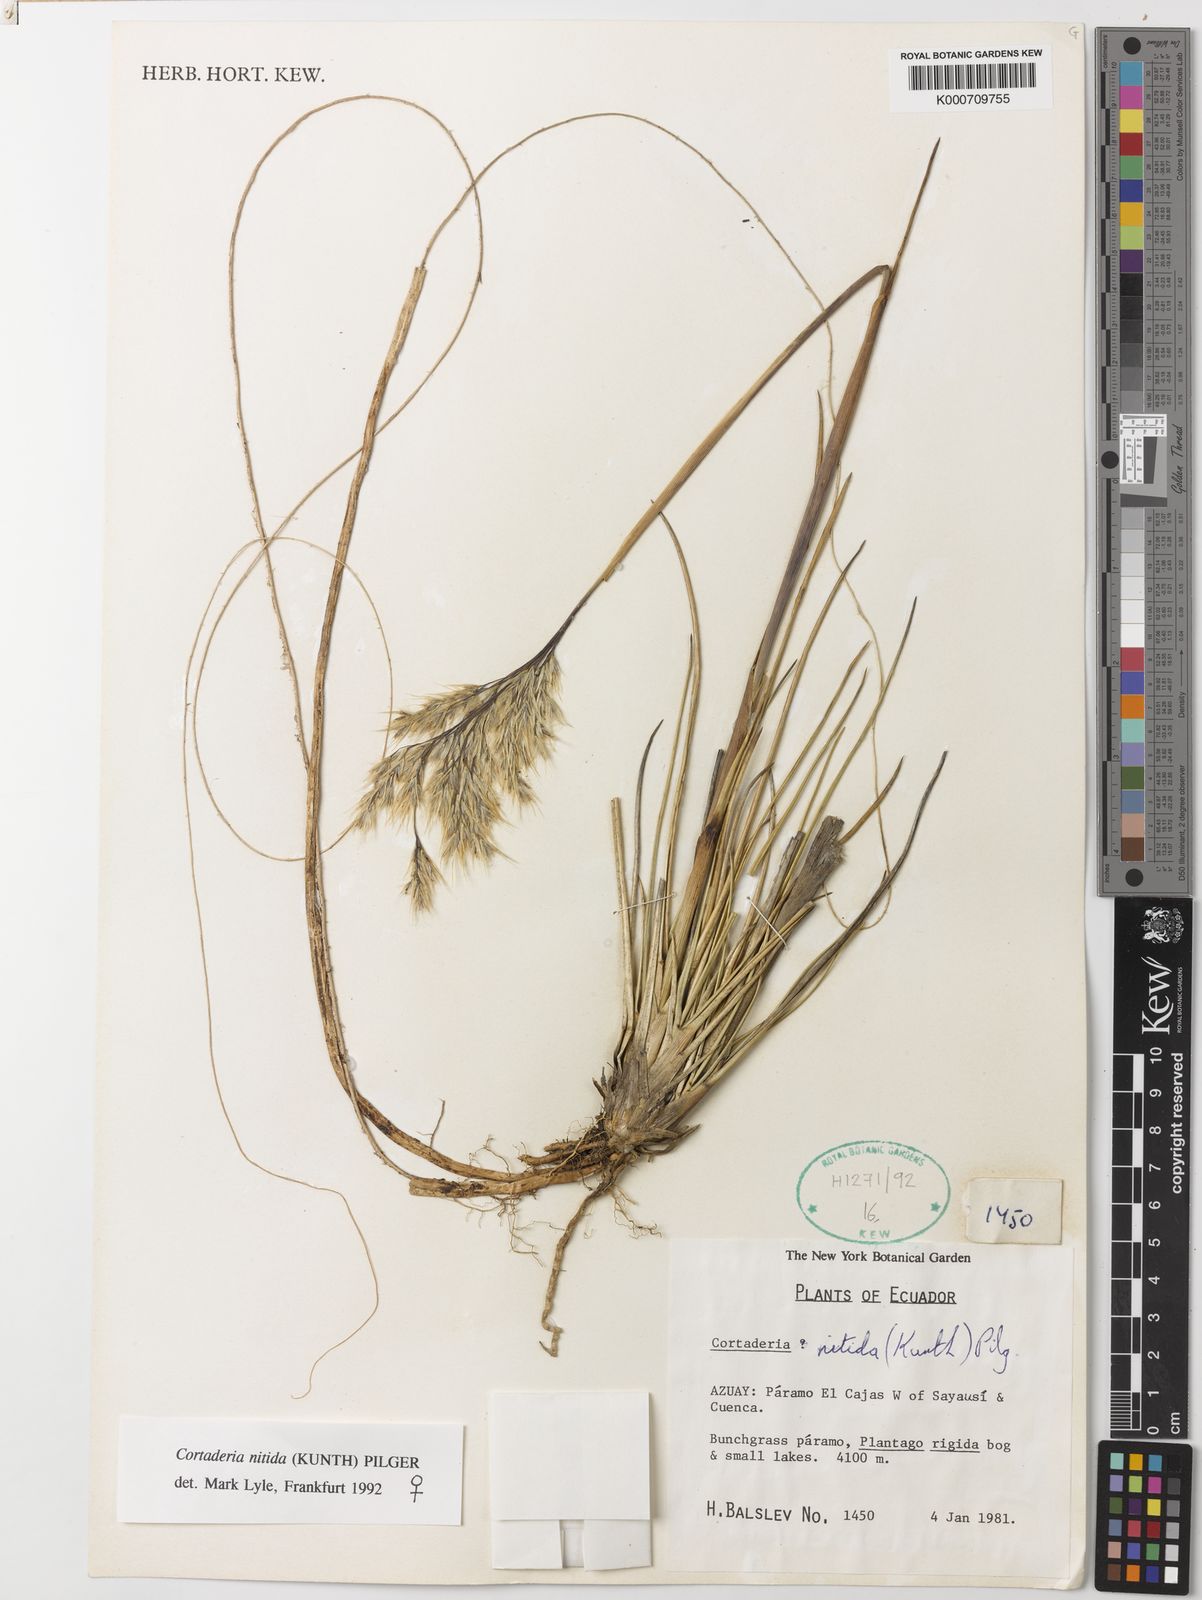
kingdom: Plantae
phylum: Tracheophyta
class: Liliopsida
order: Poales
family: Poaceae
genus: Cortaderia
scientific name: Cortaderia nitida
